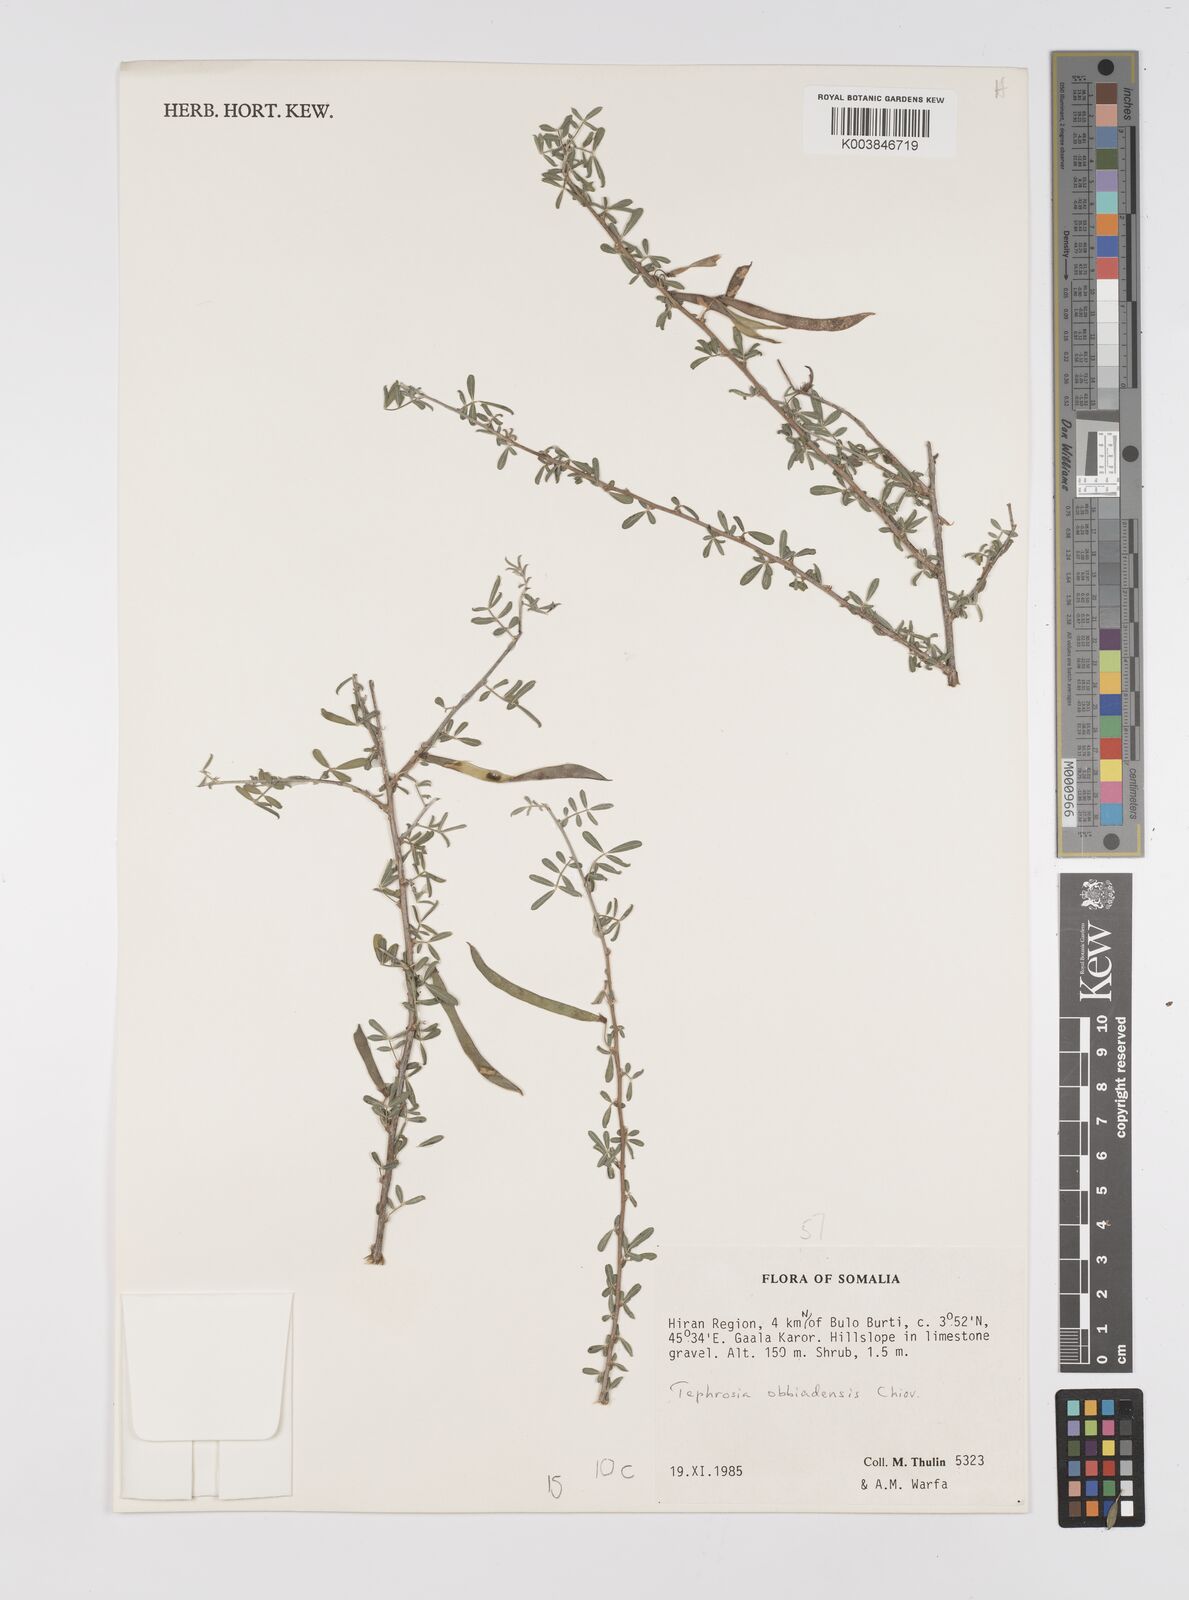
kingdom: Plantae
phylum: Tracheophyta
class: Magnoliopsida
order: Fabales
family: Fabaceae
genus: Tephrosia
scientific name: Tephrosia obbiadensis
